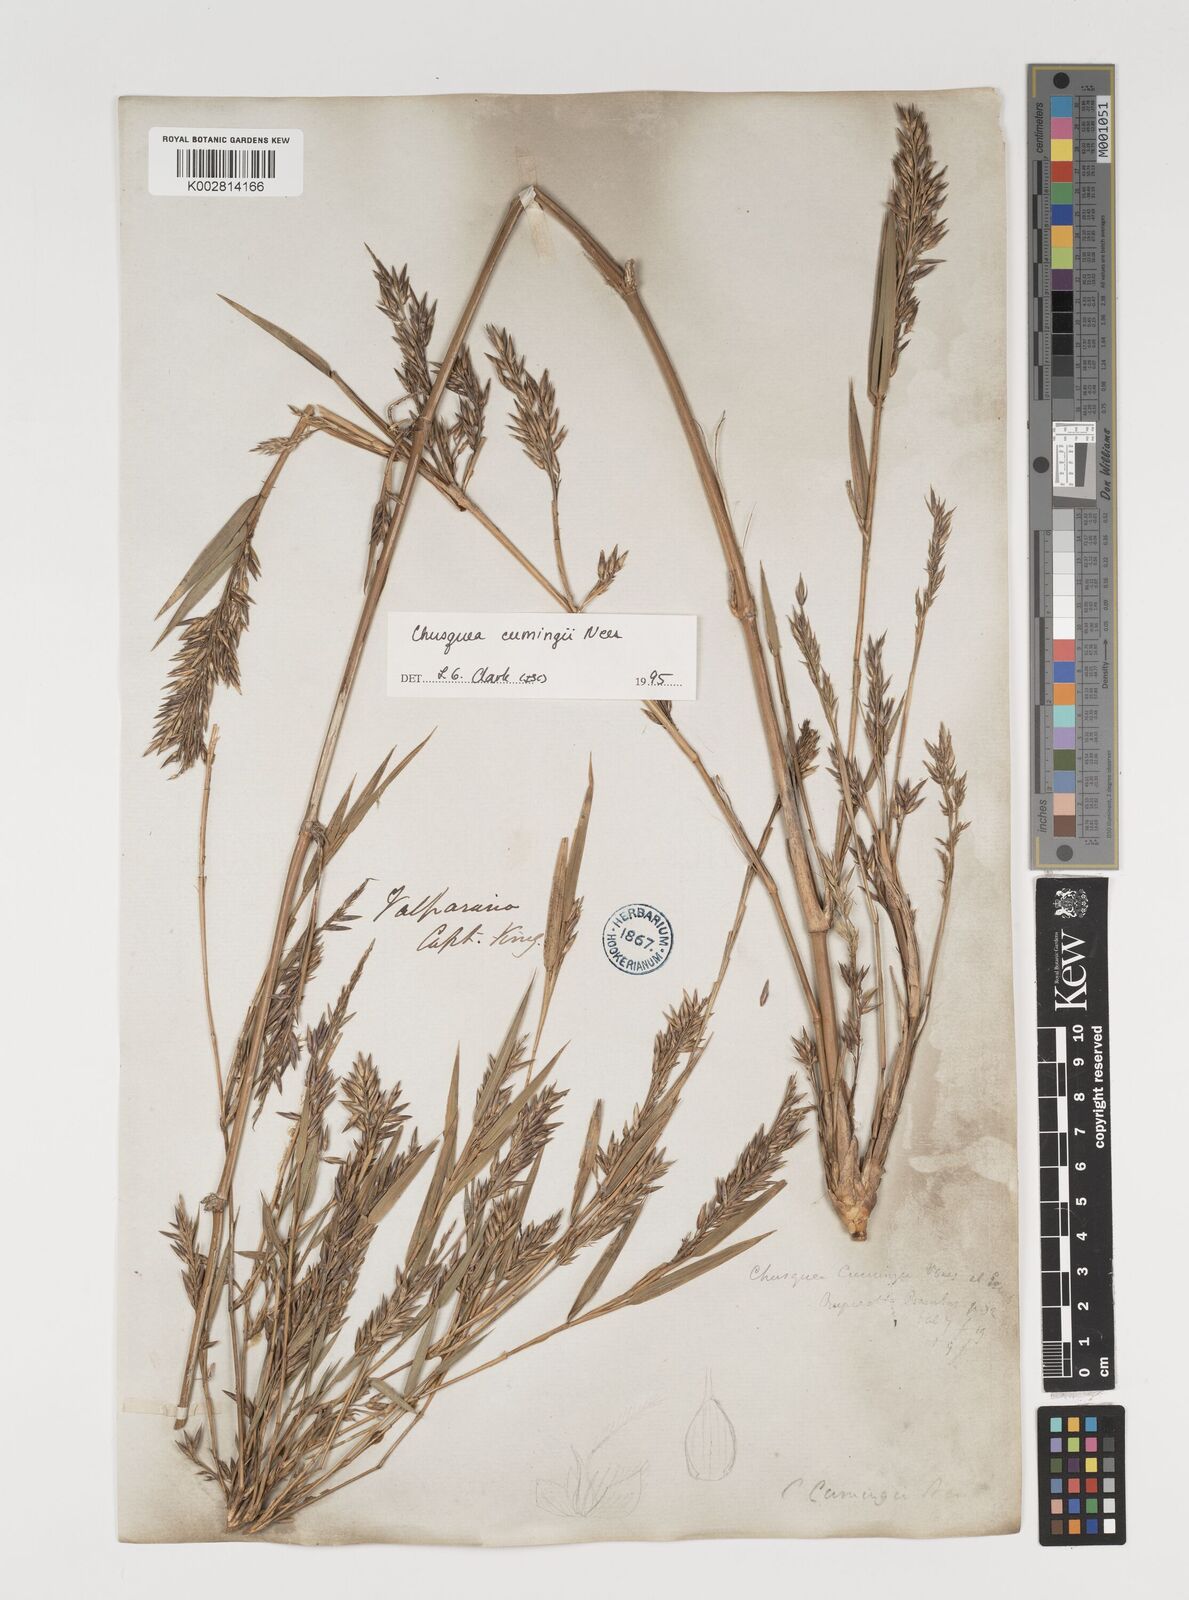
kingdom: Plantae
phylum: Tracheophyta
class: Liliopsida
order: Poales
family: Poaceae
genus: Chusquea
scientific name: Chusquea cumingii
